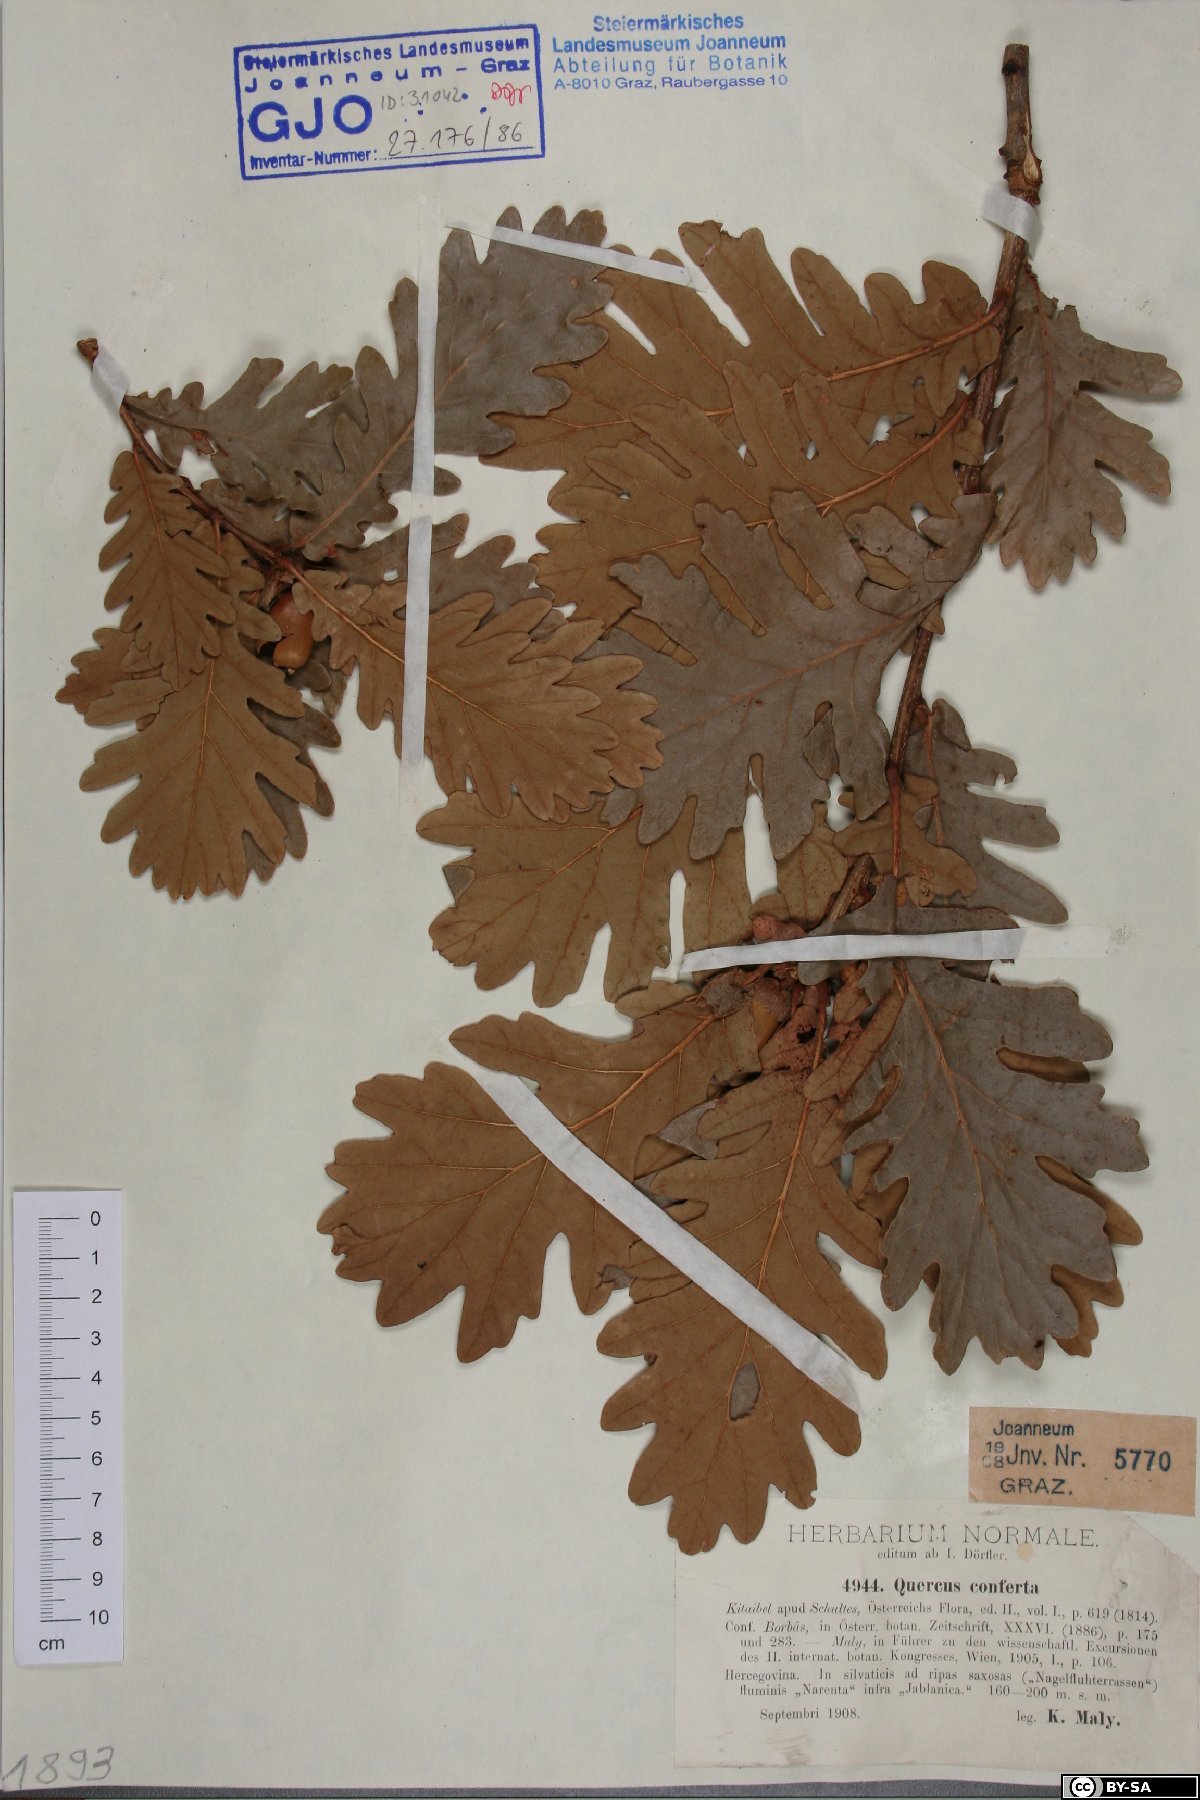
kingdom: Plantae
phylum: Tracheophyta
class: Magnoliopsida
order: Fagales
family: Fagaceae
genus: Quercus
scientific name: Quercus conferta
